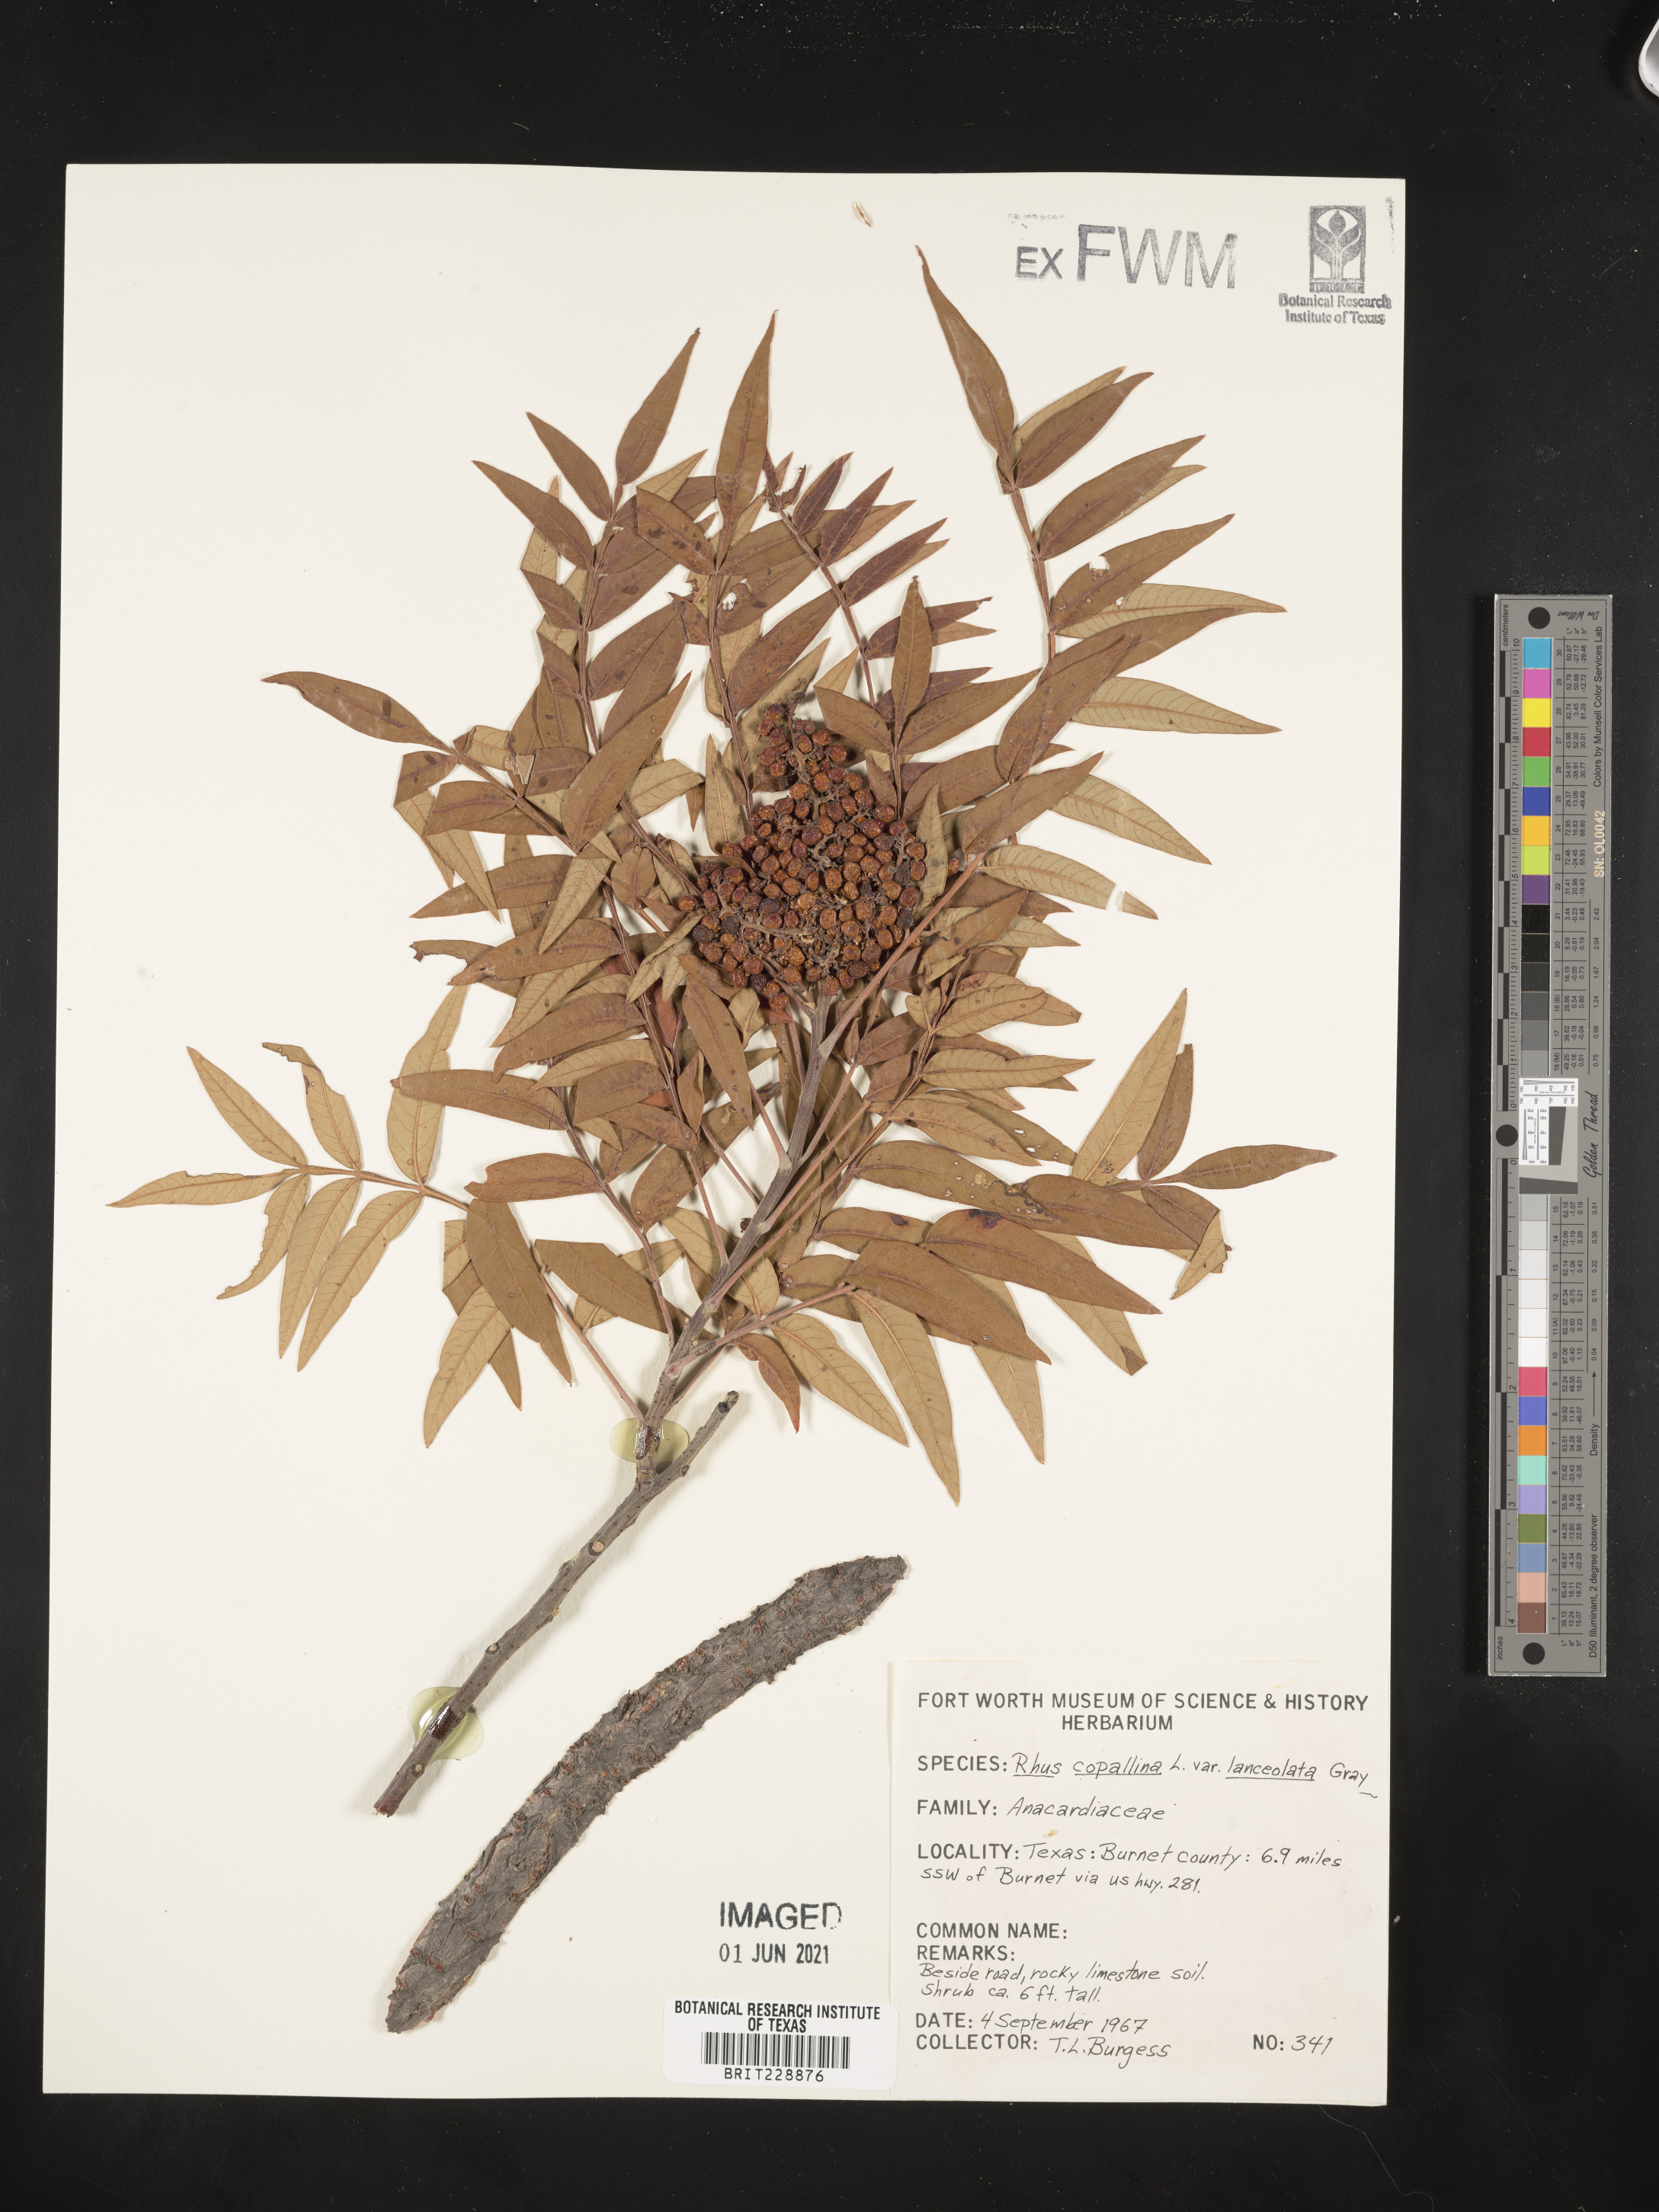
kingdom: Plantae
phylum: Tracheophyta
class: Magnoliopsida
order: Sapindales
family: Anacardiaceae
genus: Rhus
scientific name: Rhus lanceolata
